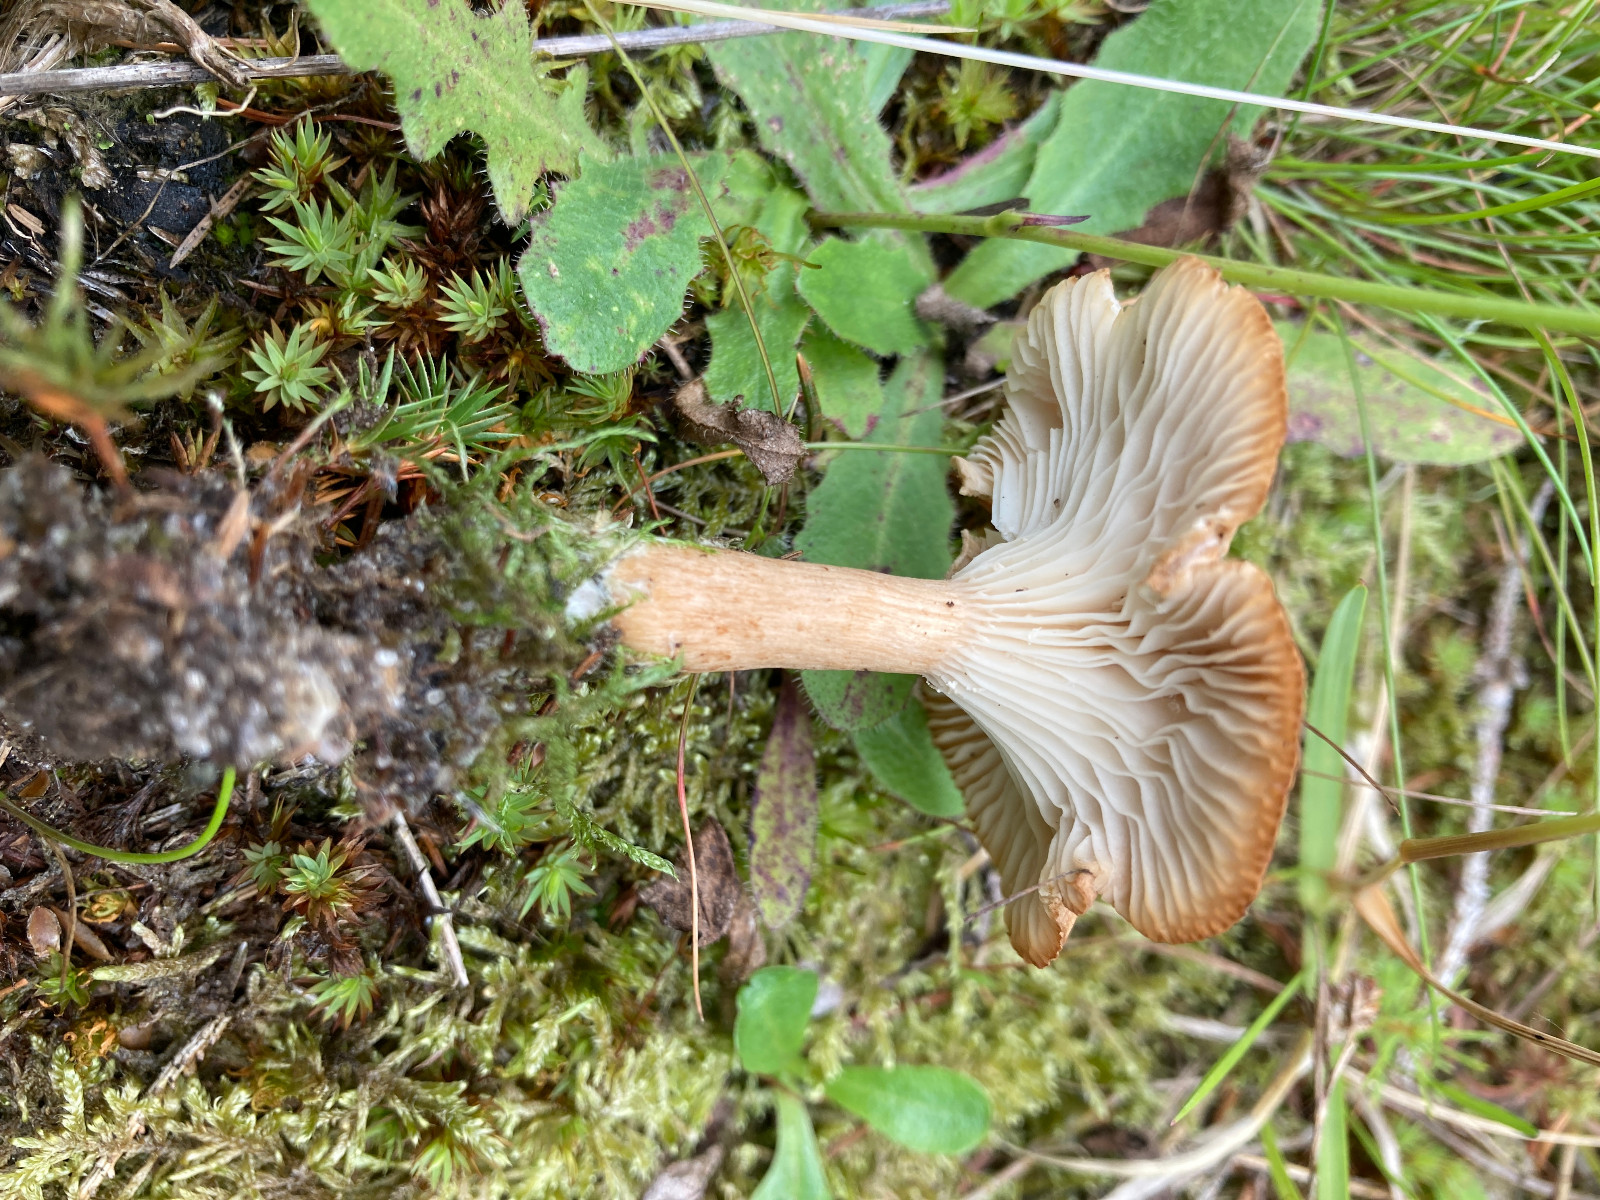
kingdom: Fungi
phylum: Basidiomycota
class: Agaricomycetes
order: Agaricales
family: Tricholomataceae
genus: Infundibulicybe
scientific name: Infundibulicybe squamulosa
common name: småskællet tragthat
